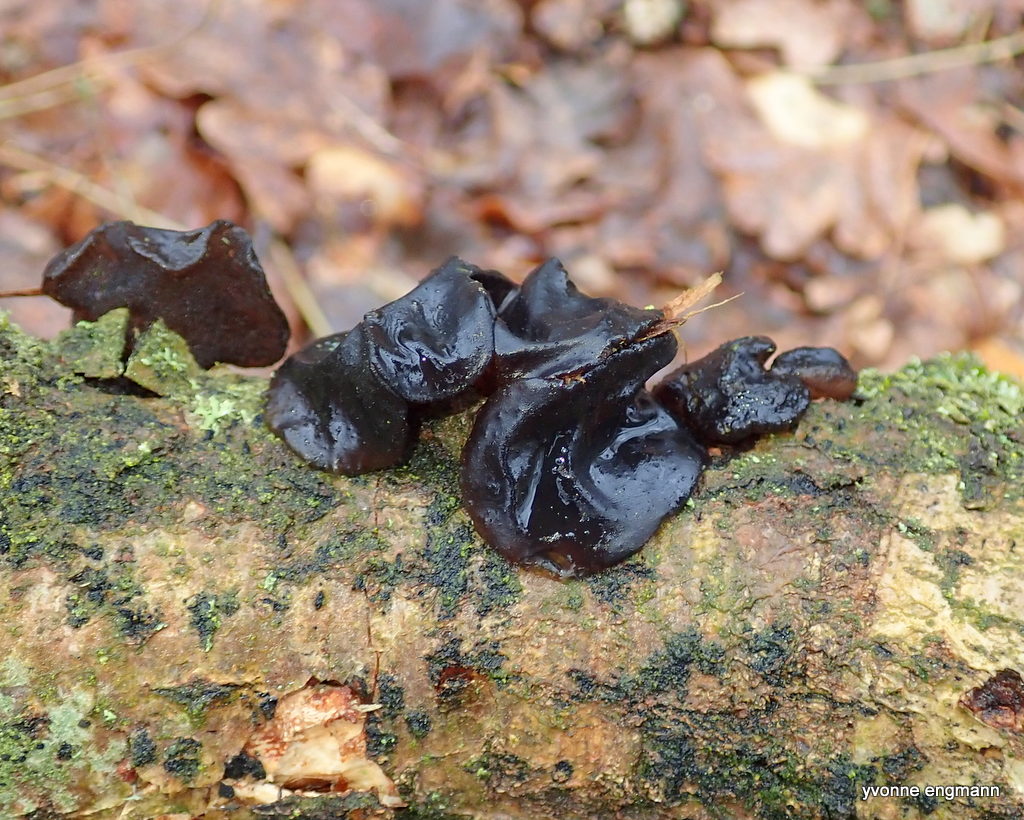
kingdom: Fungi
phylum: Basidiomycota
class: Agaricomycetes
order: Auriculariales
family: Auriculariaceae
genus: Exidia
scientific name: Exidia glandulosa
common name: ege-bævretop
